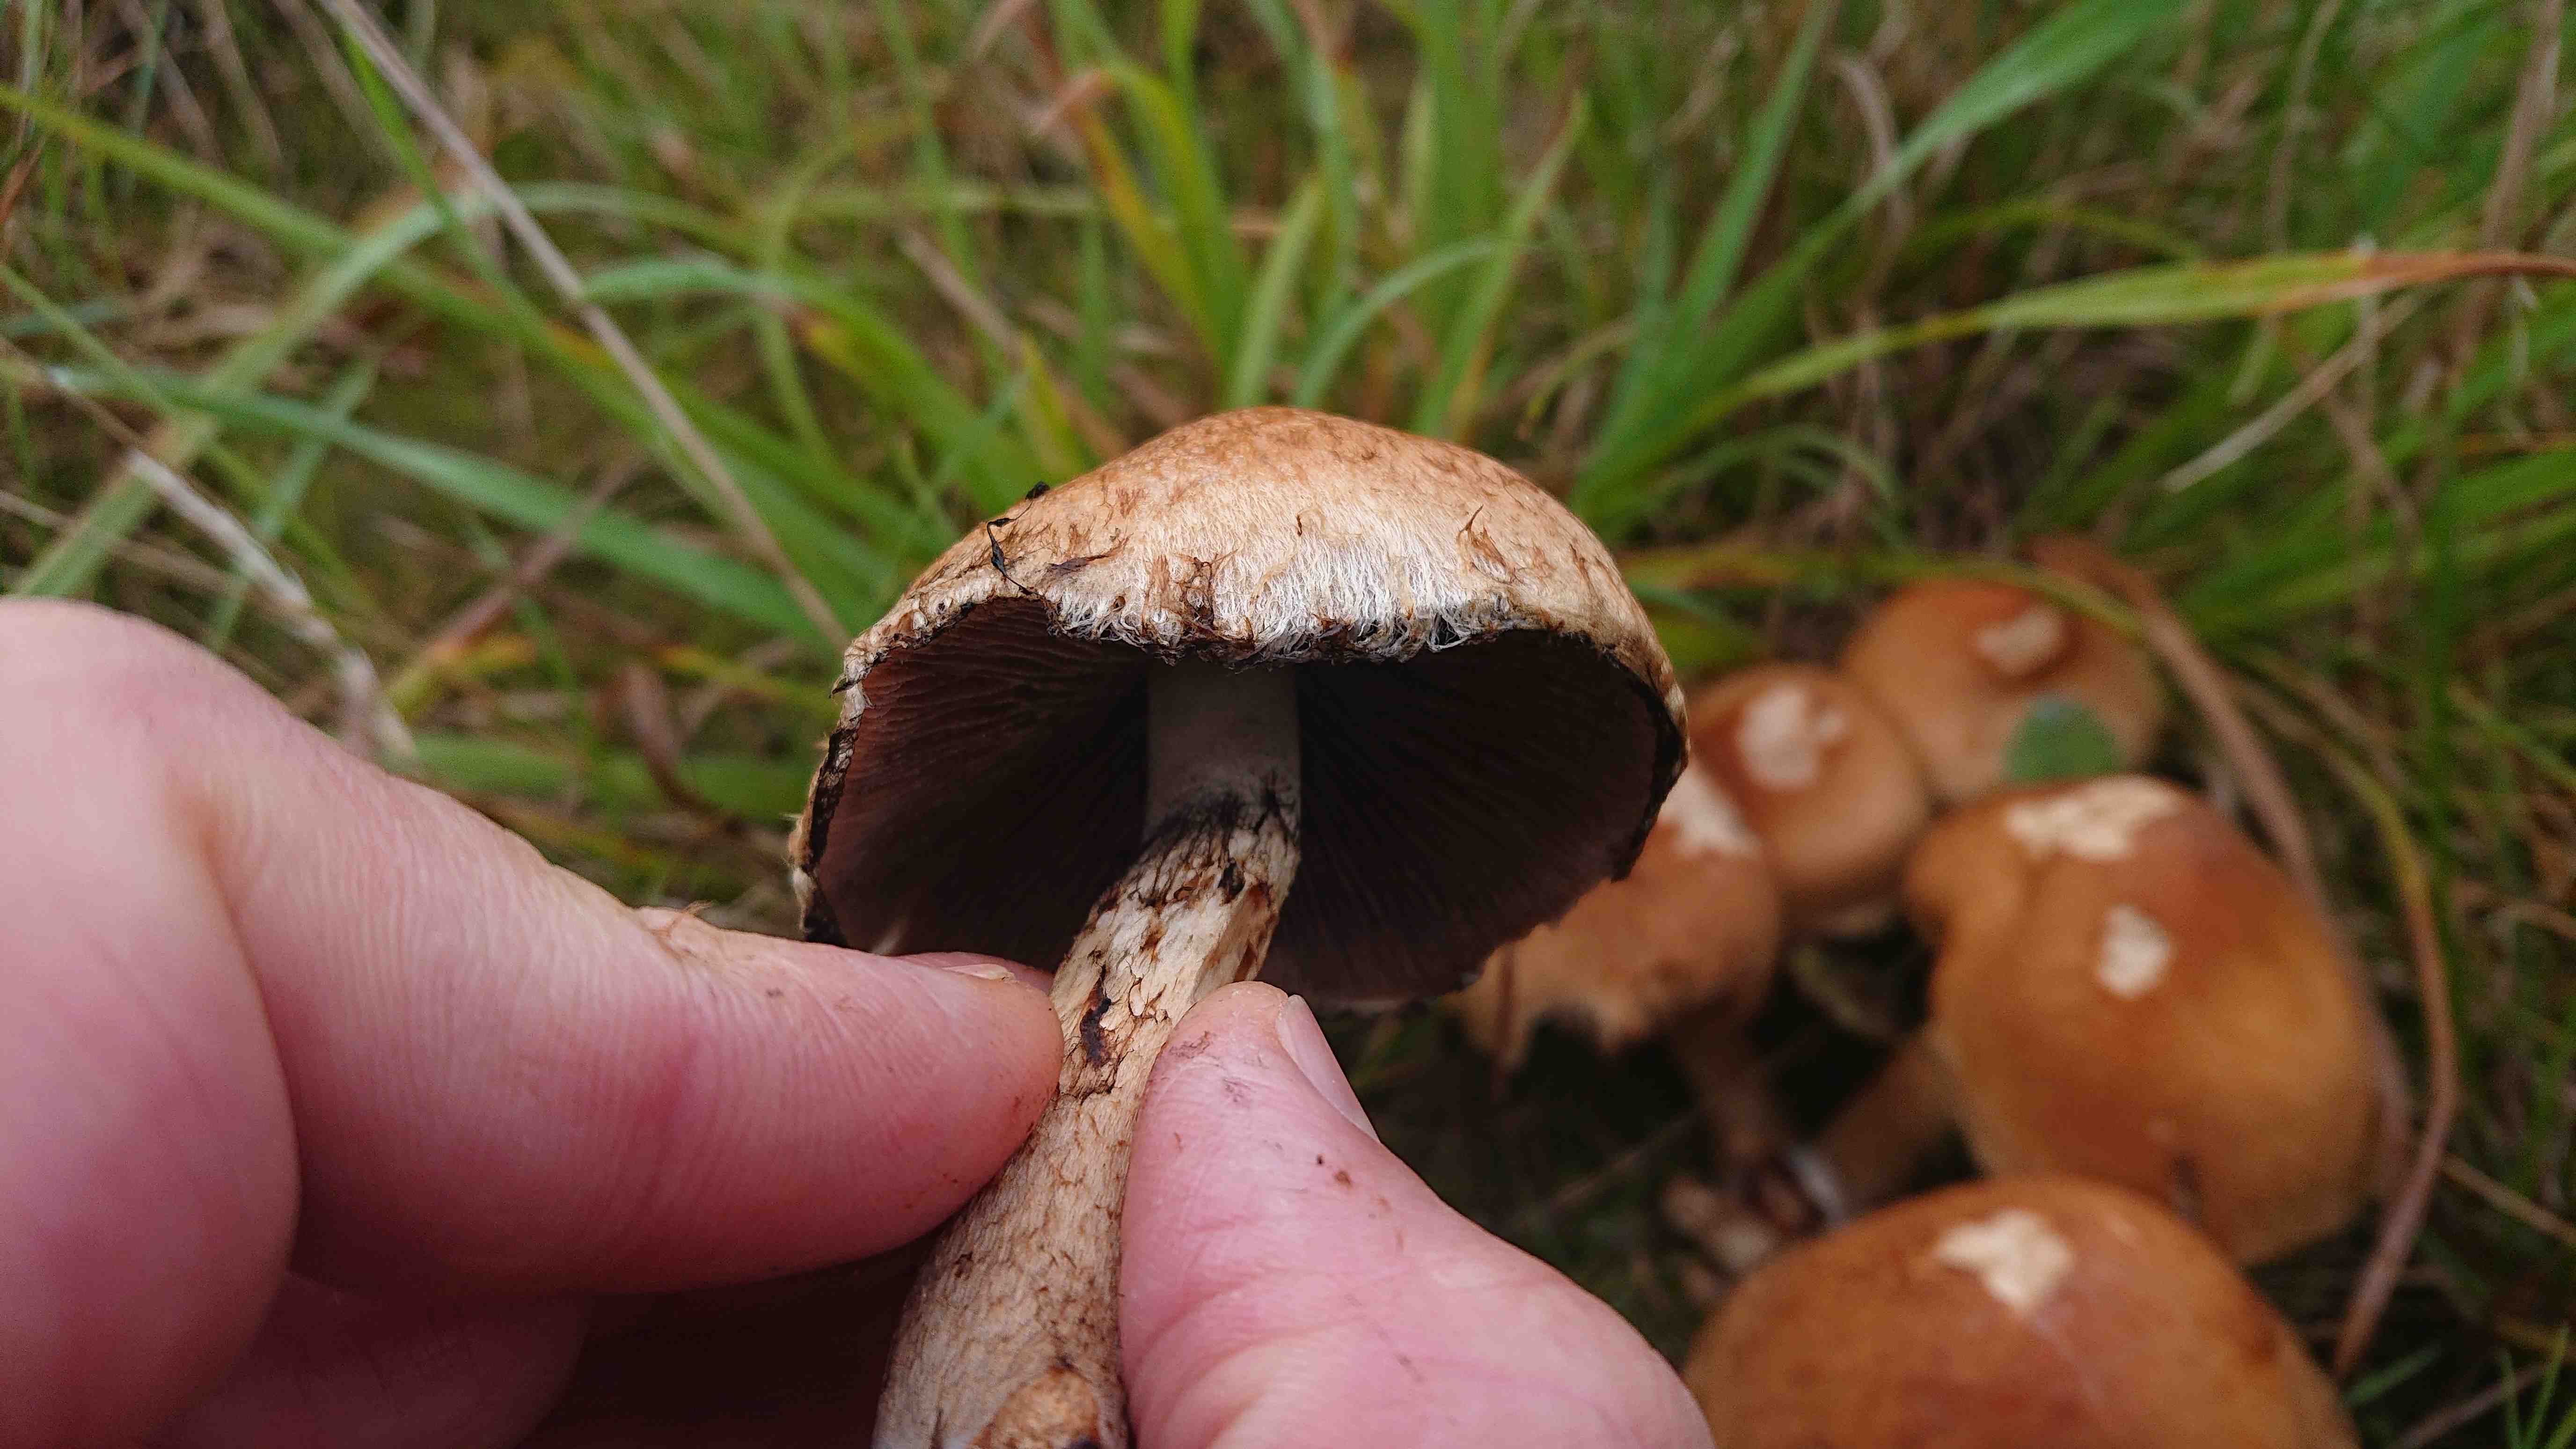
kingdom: Fungi
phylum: Basidiomycota
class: Agaricomycetes
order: Agaricales
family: Psathyrellaceae
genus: Lacrymaria
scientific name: Lacrymaria lacrymabunda
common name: grædende mørkhat
